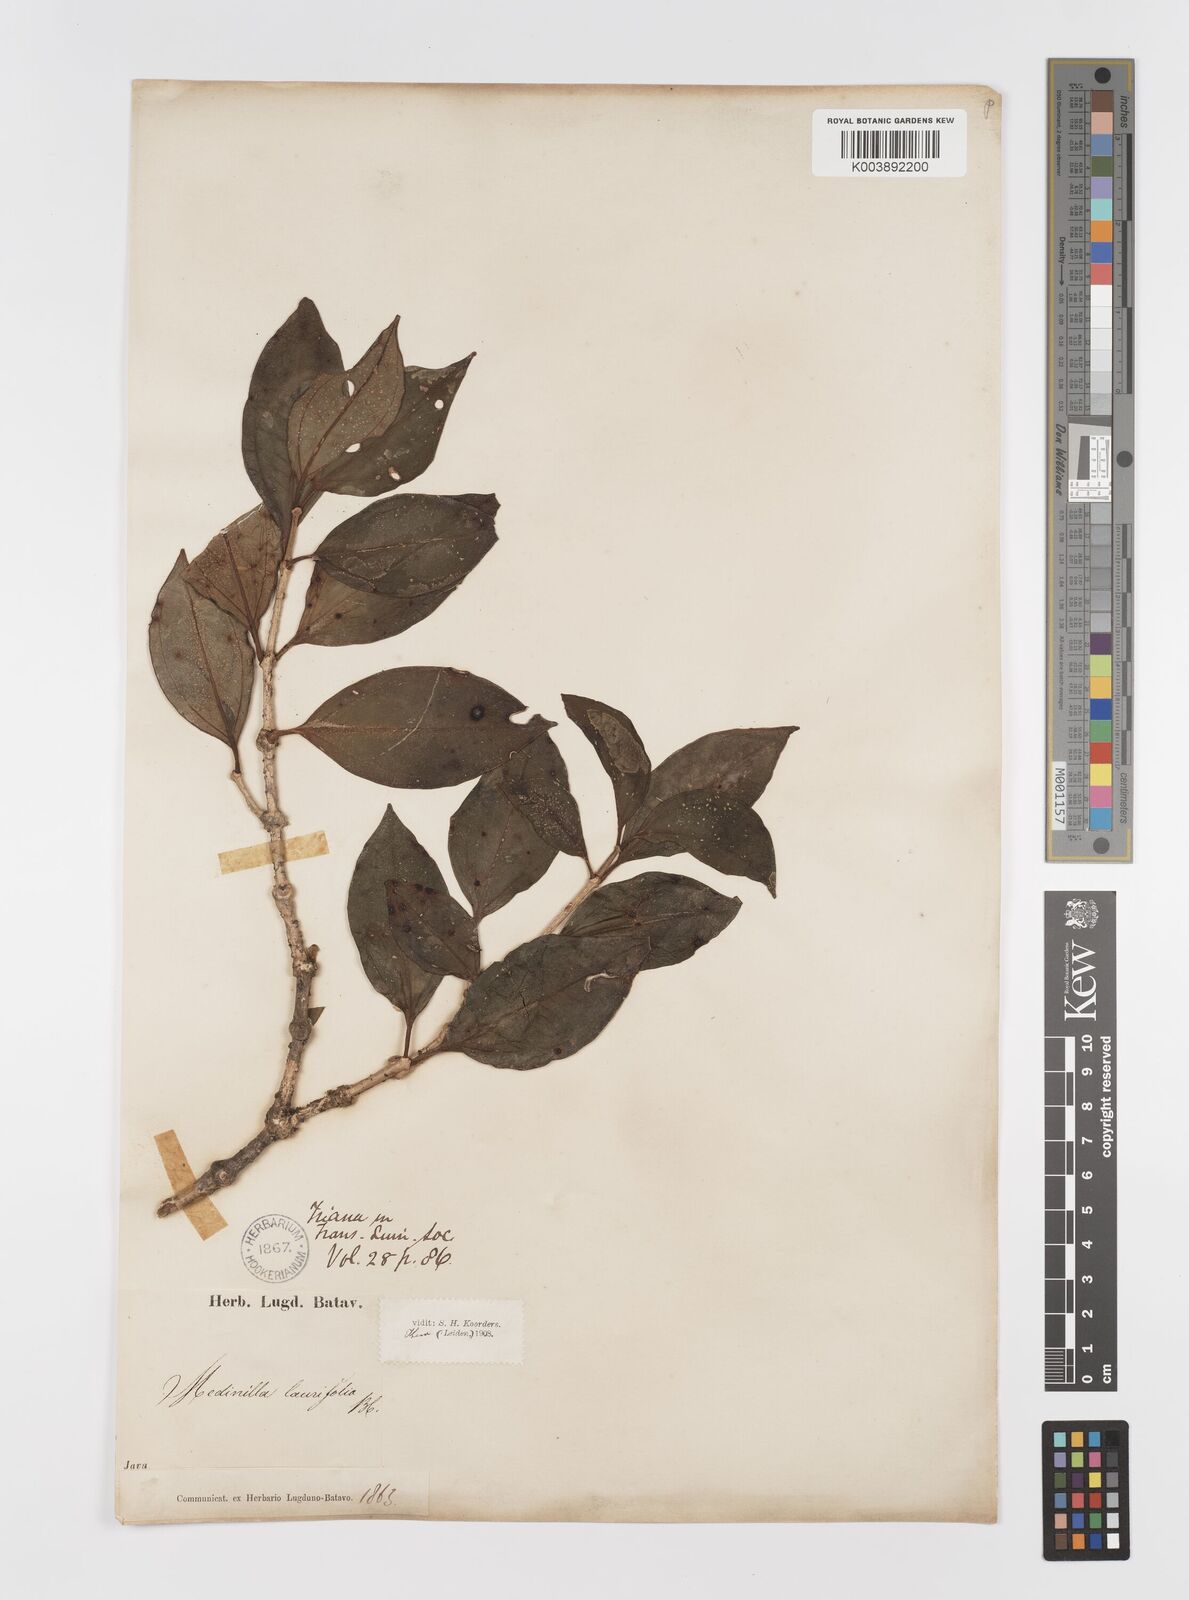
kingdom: Plantae
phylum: Tracheophyta
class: Magnoliopsida
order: Myrtales
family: Melastomataceae
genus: Medinilla
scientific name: Medinilla laurifolia
